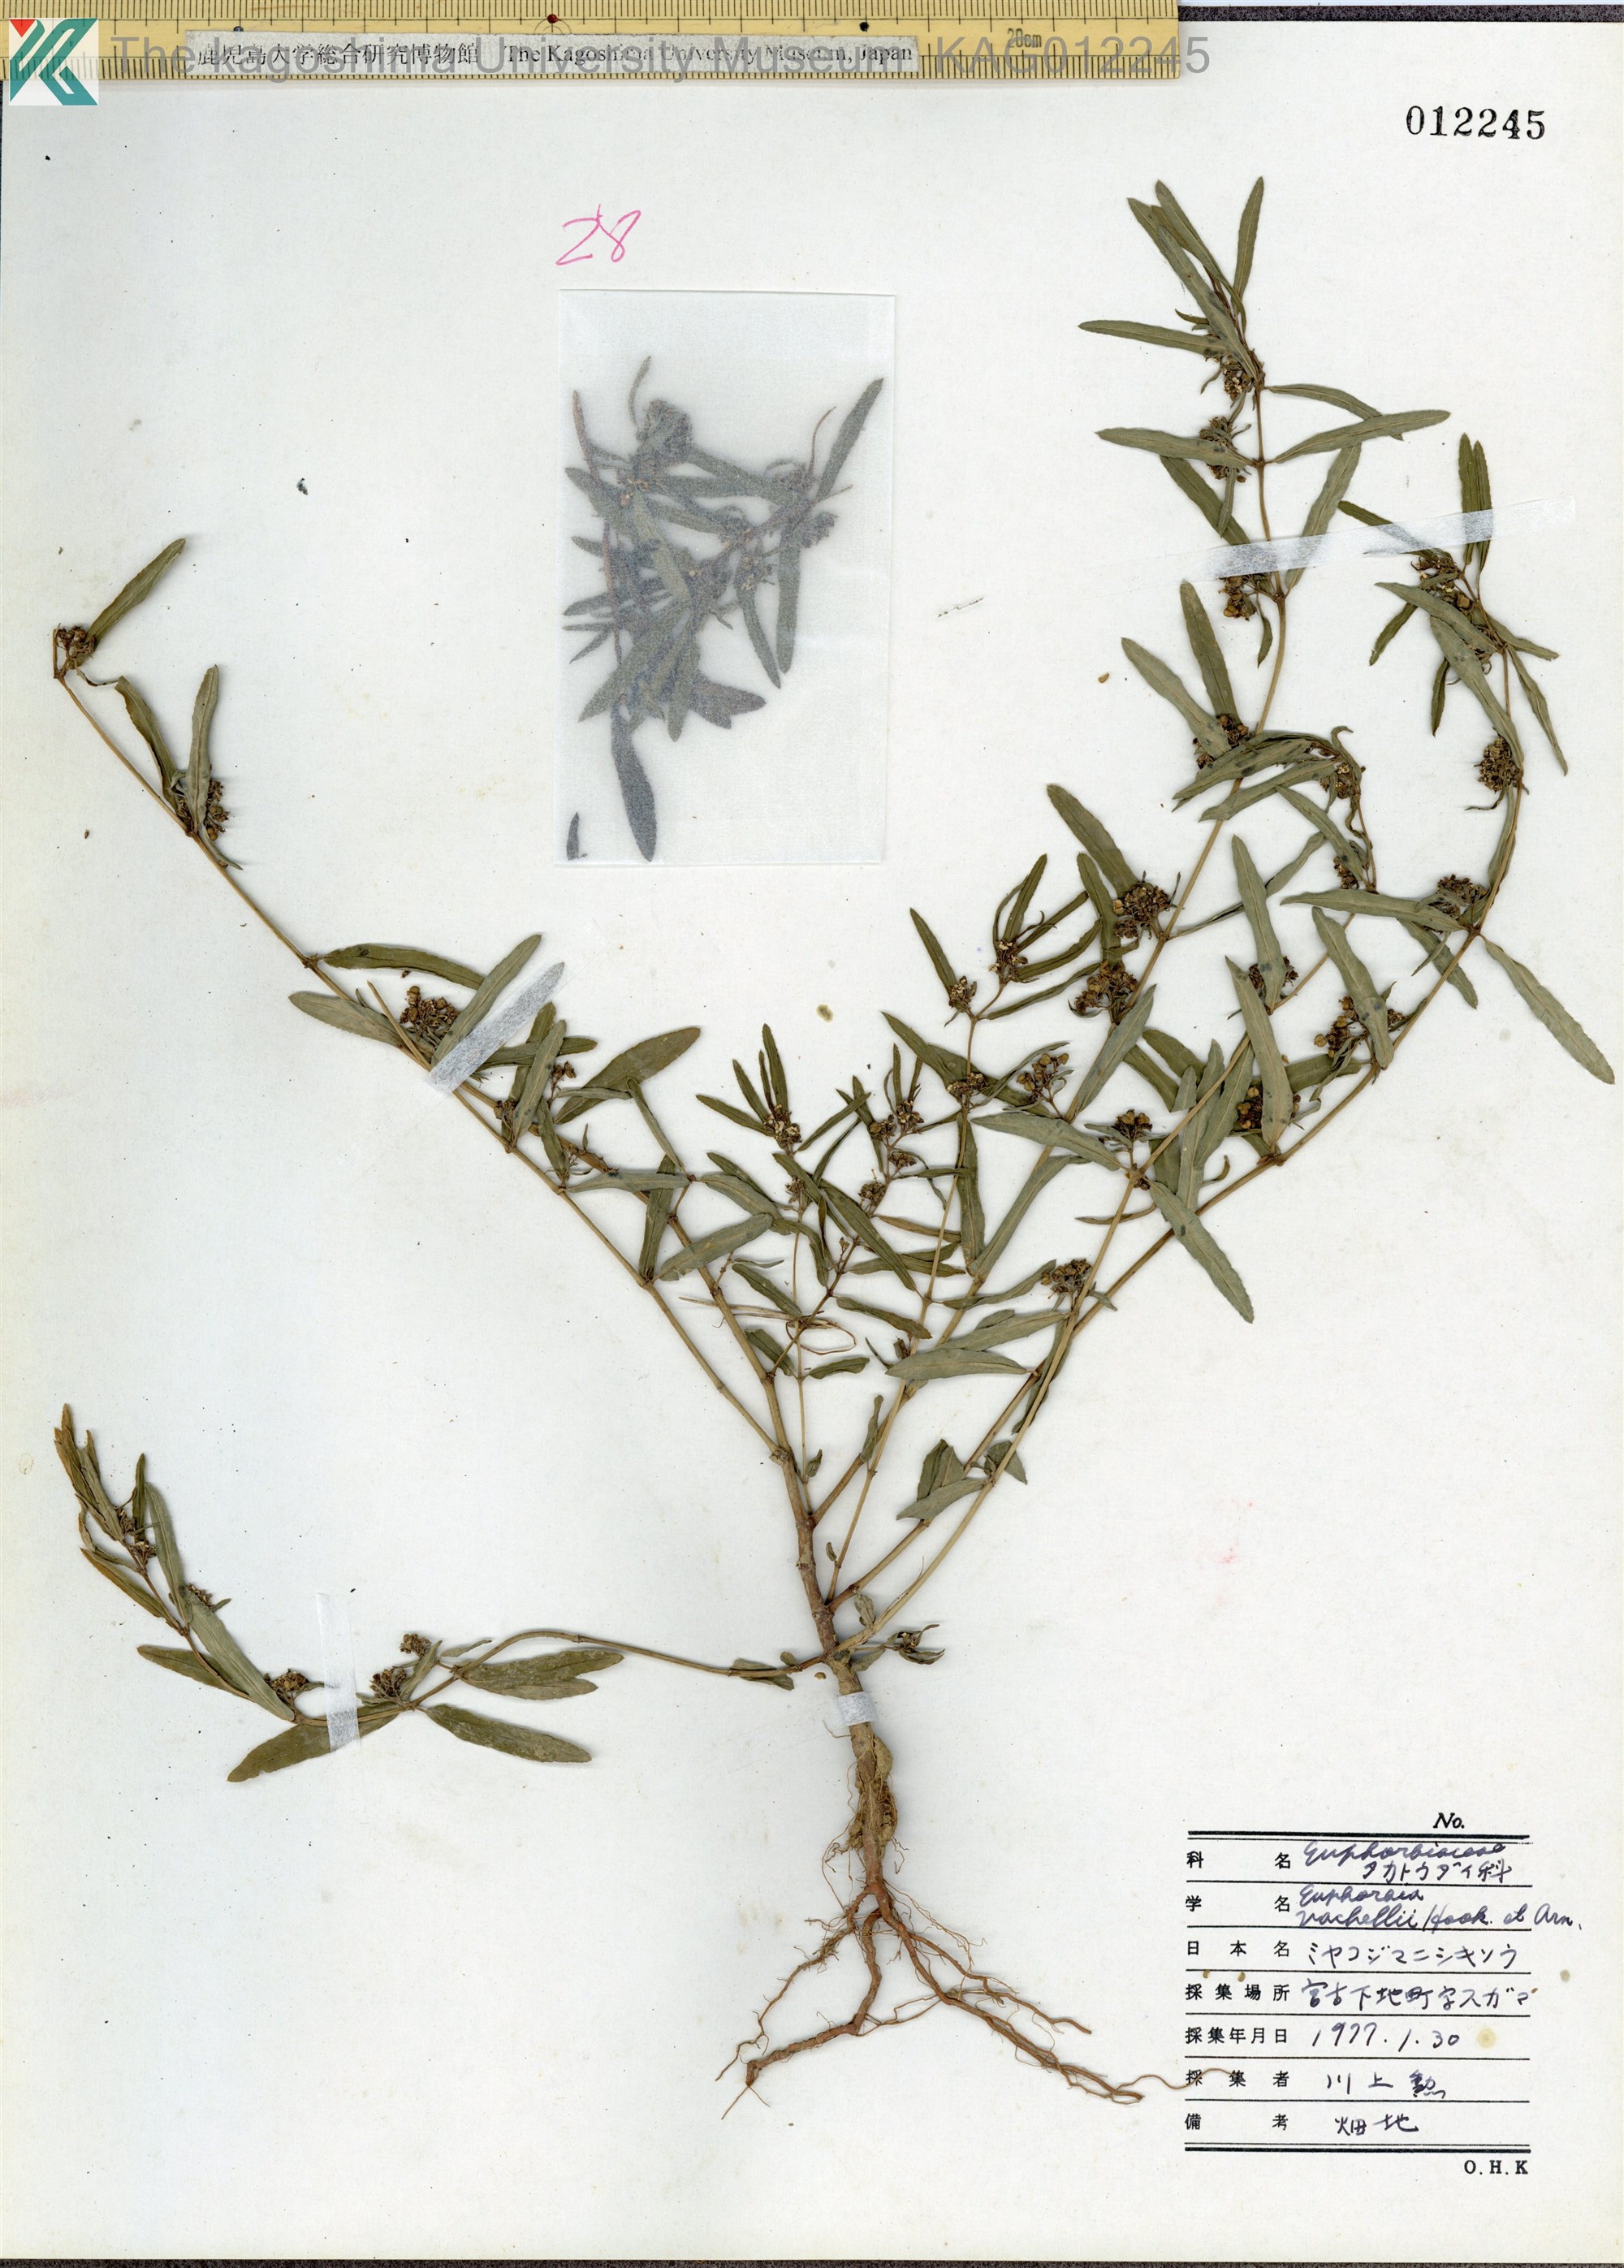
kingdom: Plantae
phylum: Tracheophyta
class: Magnoliopsida
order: Malpighiales
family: Euphorbiaceae
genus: Euphorbia
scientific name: Euphorbia bifida
